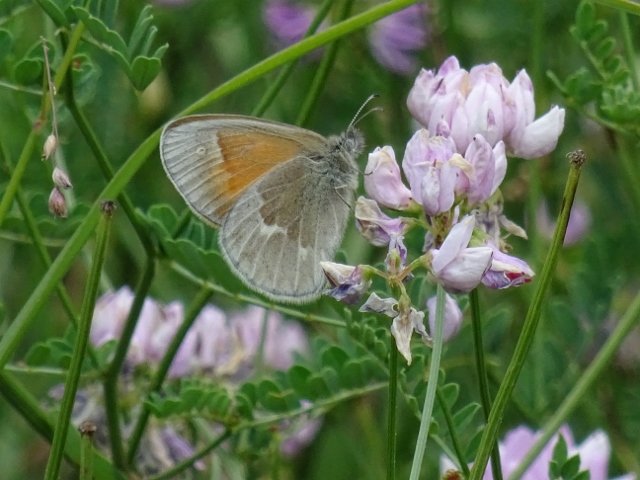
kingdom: Animalia
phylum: Arthropoda
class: Insecta
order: Lepidoptera
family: Nymphalidae
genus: Coenonympha
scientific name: Coenonympha tullia
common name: Large Heath
